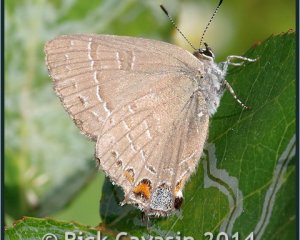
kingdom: Animalia
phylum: Arthropoda
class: Insecta
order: Lepidoptera
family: Lycaenidae
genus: Satyrium
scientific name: Satyrium calanus
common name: Banded Hairstreak
